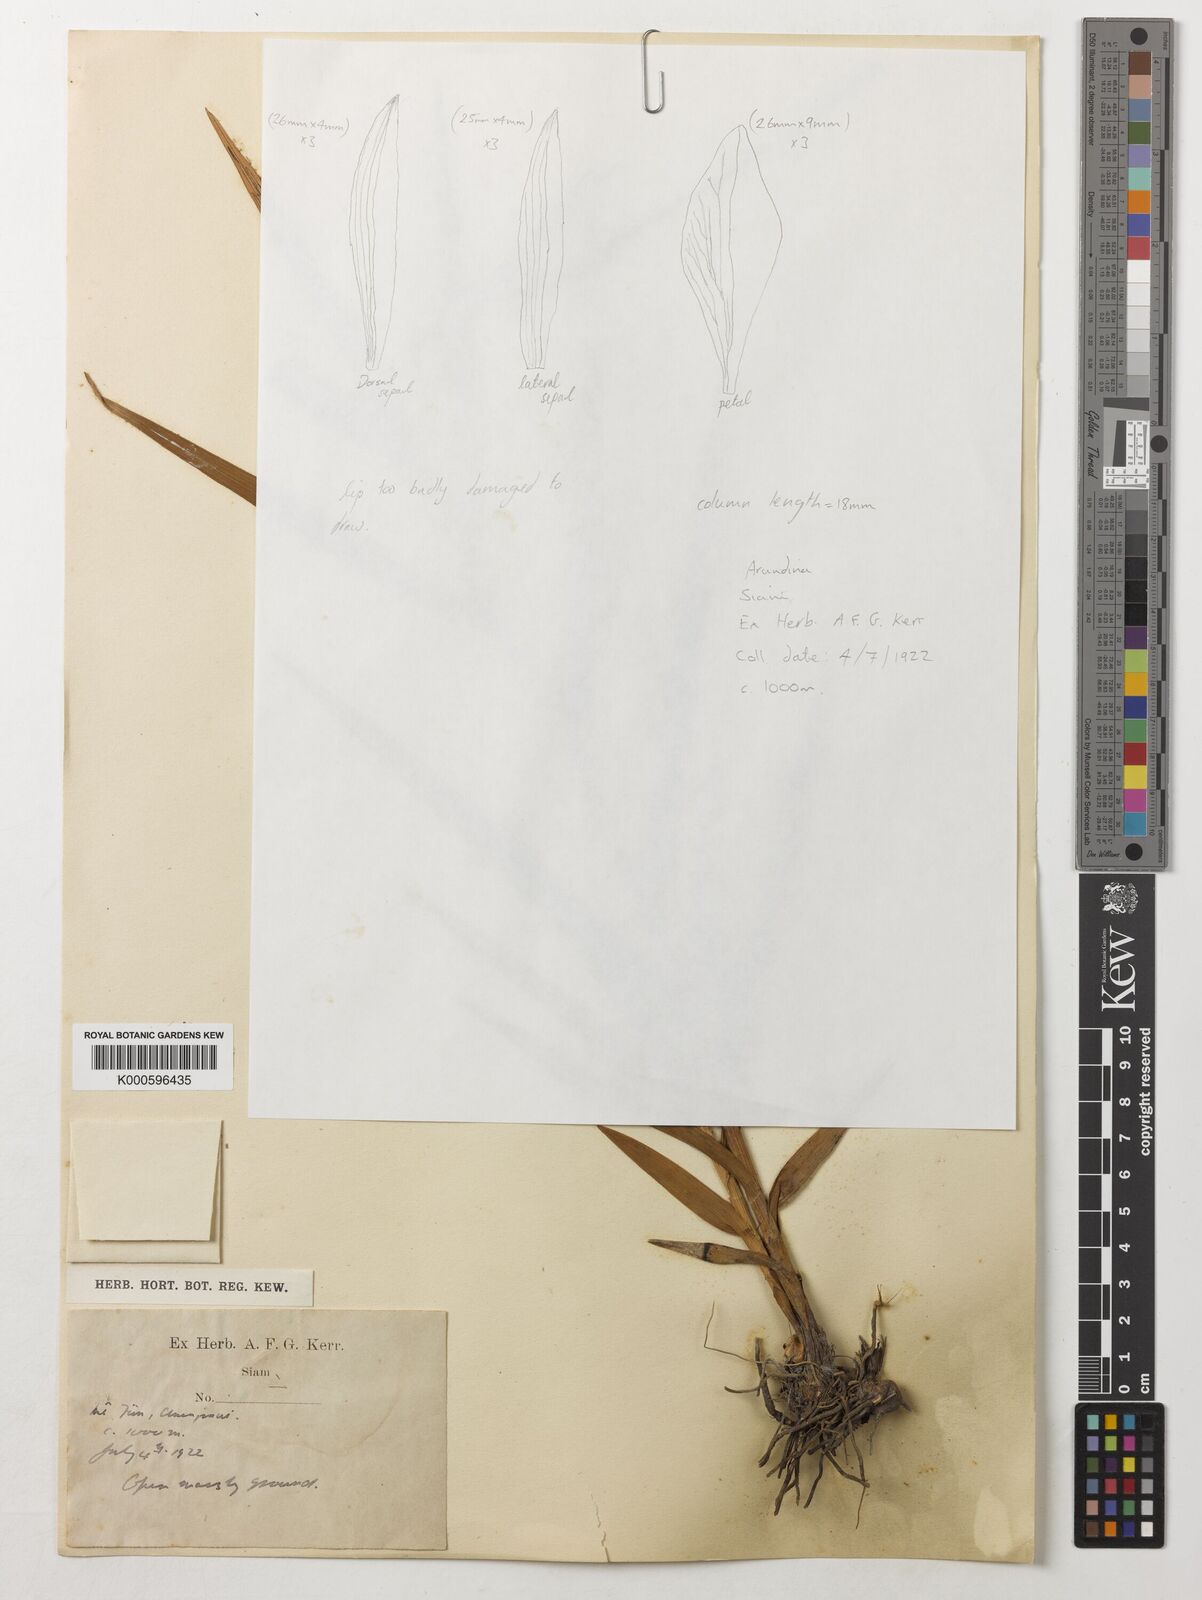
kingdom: Plantae
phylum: Tracheophyta
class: Liliopsida
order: Asparagales
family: Orchidaceae
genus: Arundina
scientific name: Arundina graminifolia
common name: Bamboo orchid
